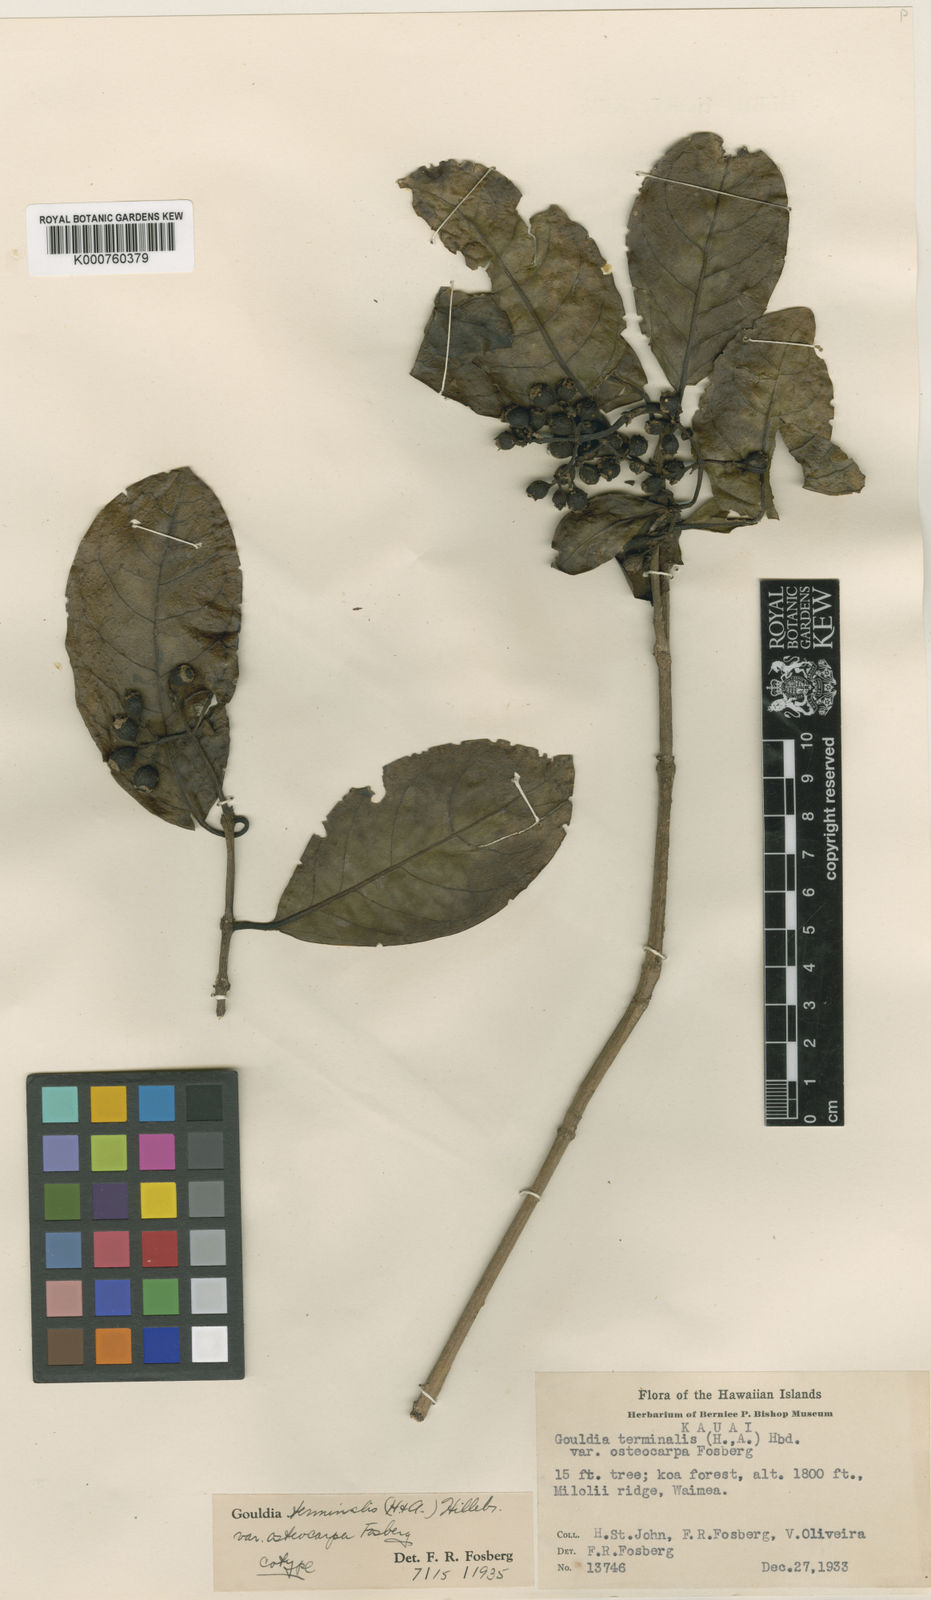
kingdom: Plantae
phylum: Tracheophyta
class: Magnoliopsida
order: Gentianales
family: Rubiaceae
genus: Kadua
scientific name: Kadua affinis
